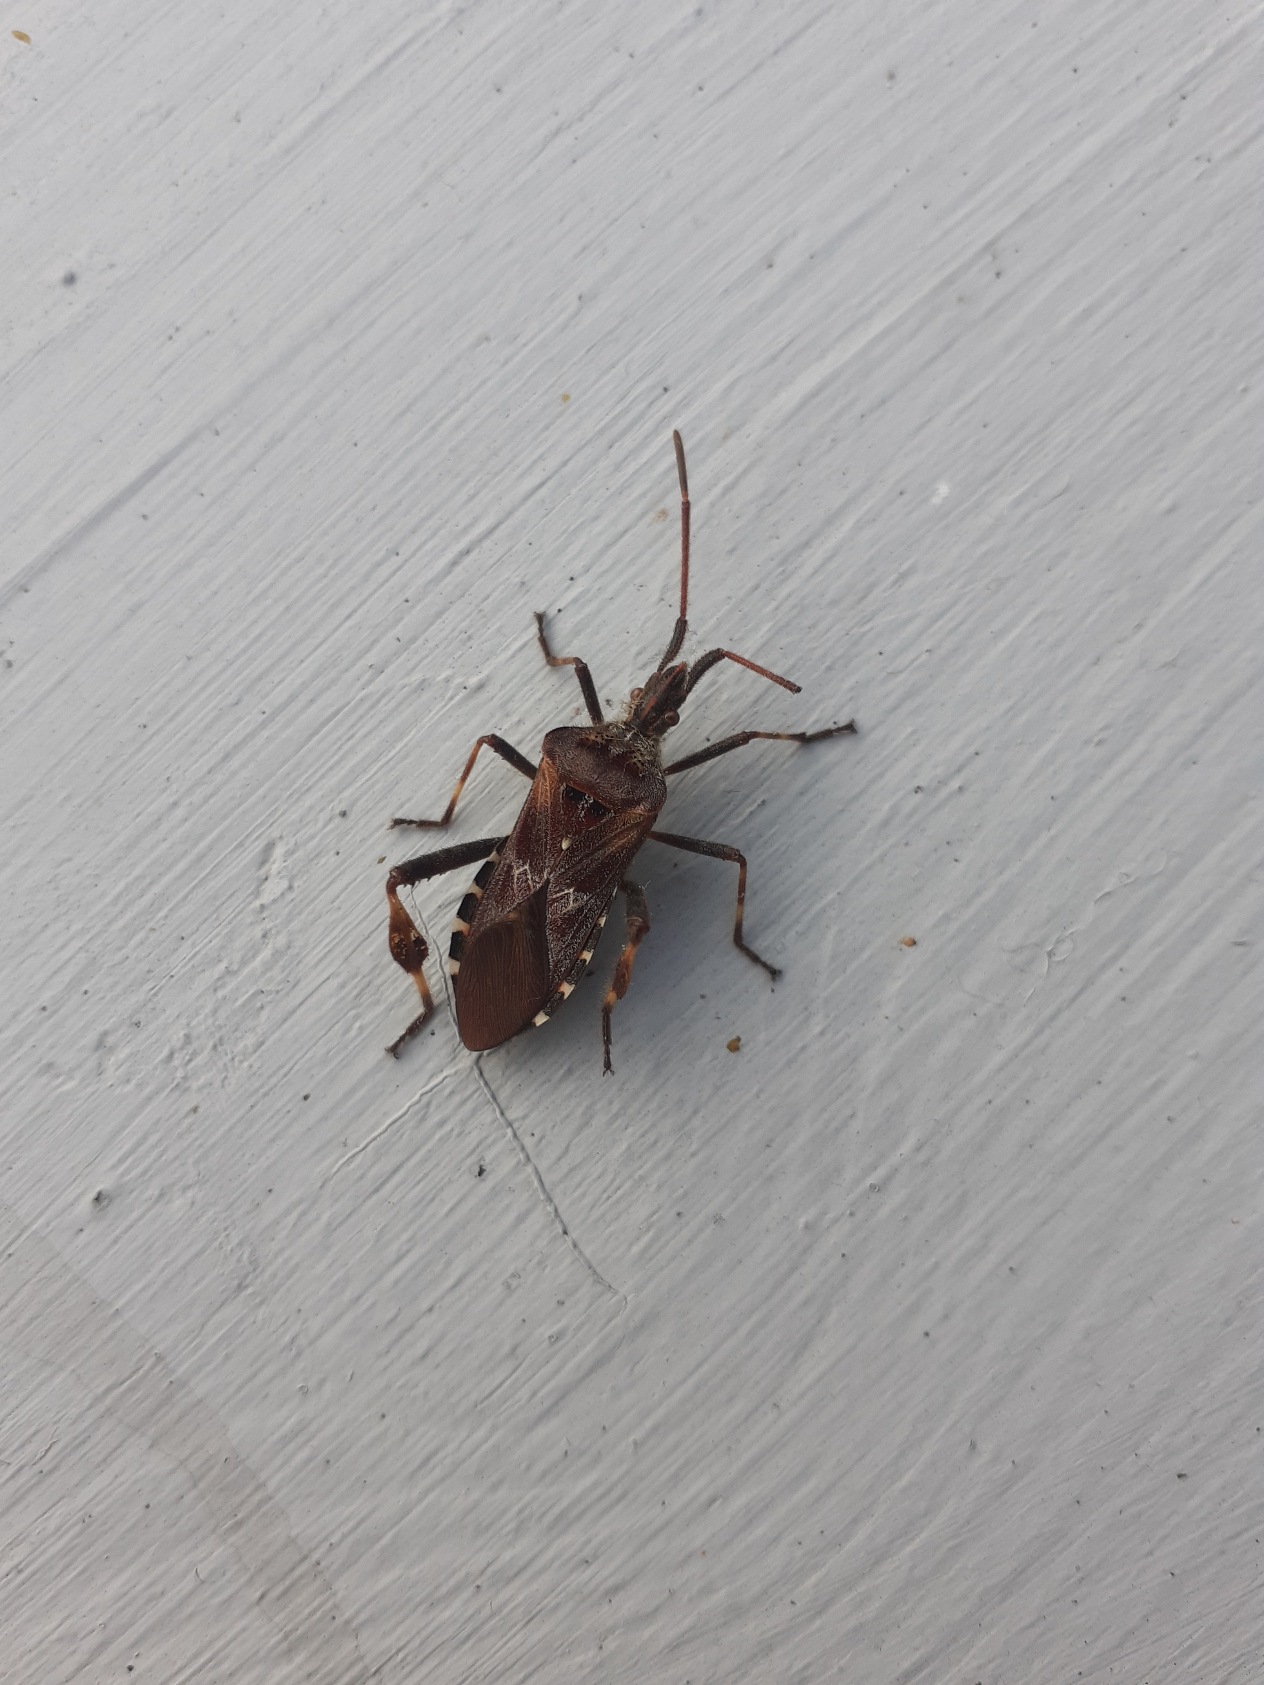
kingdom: Animalia
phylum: Arthropoda
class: Insecta
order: Hemiptera
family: Coreidae
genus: Leptoglossus
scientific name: Leptoglossus occidentalis
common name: Amerikansk fyrretæge
